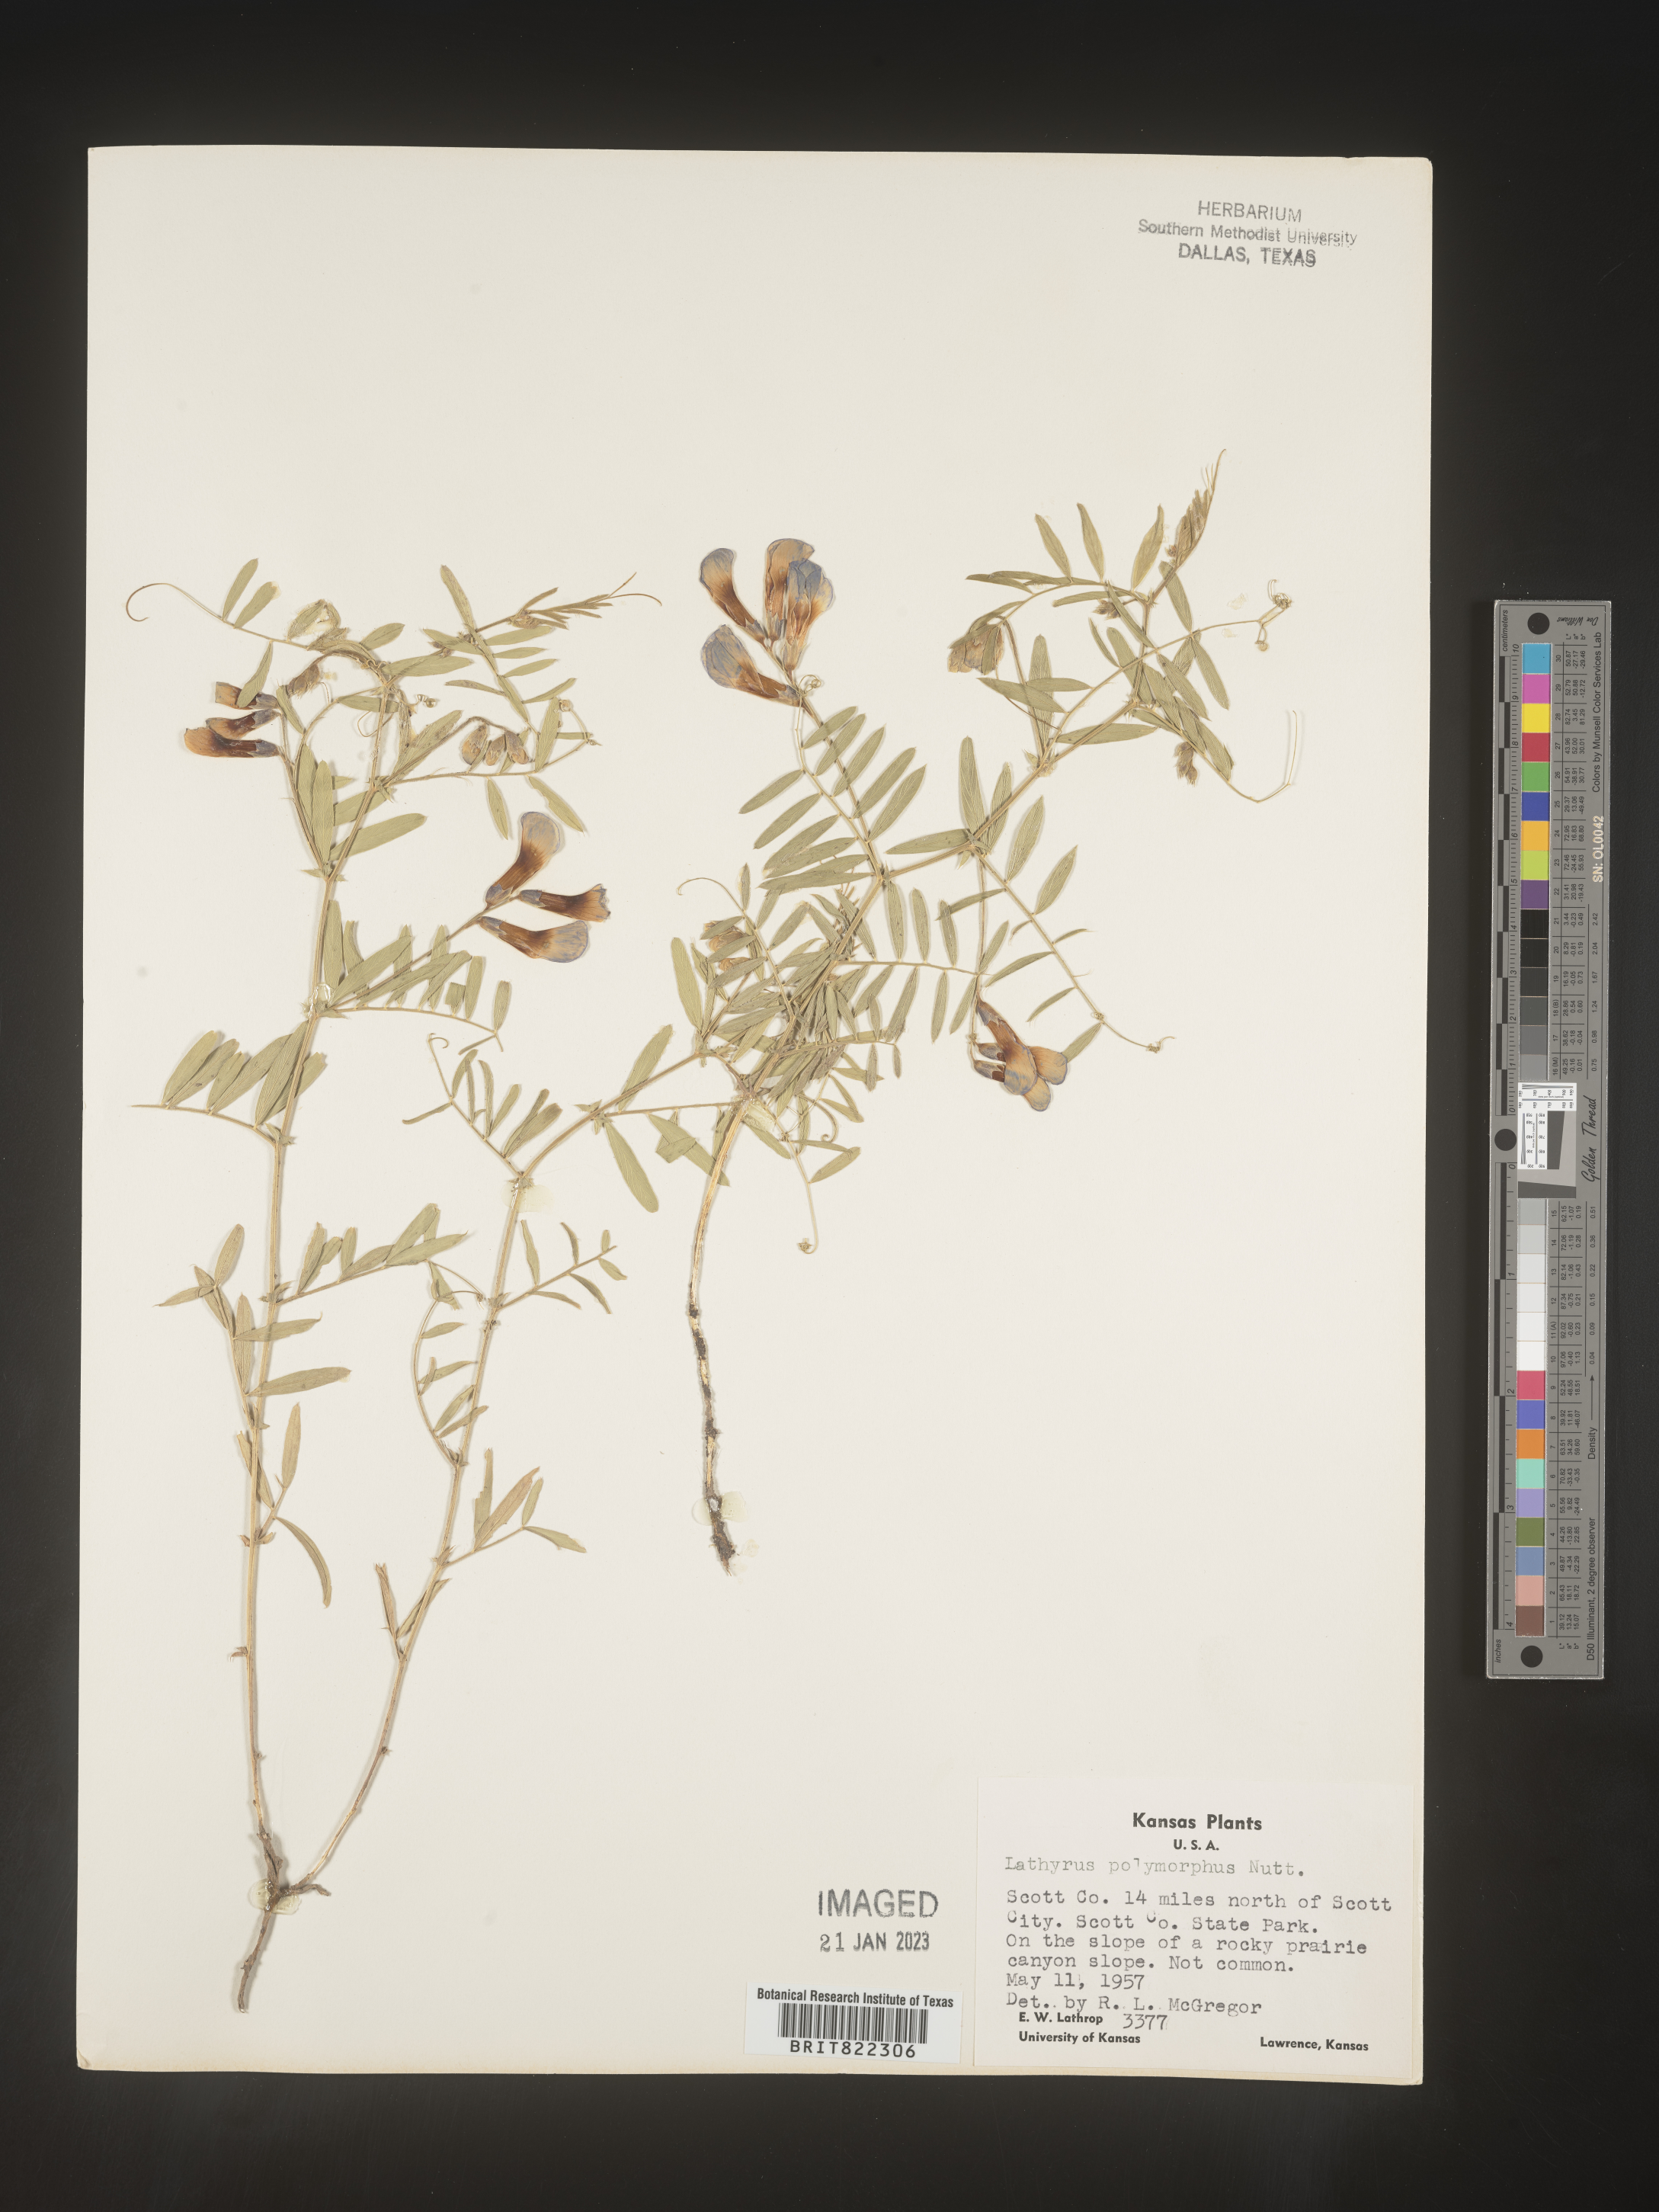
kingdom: Plantae
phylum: Tracheophyta
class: Magnoliopsida
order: Fabales
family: Fabaceae
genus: Lathyrus
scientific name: Lathyrus
